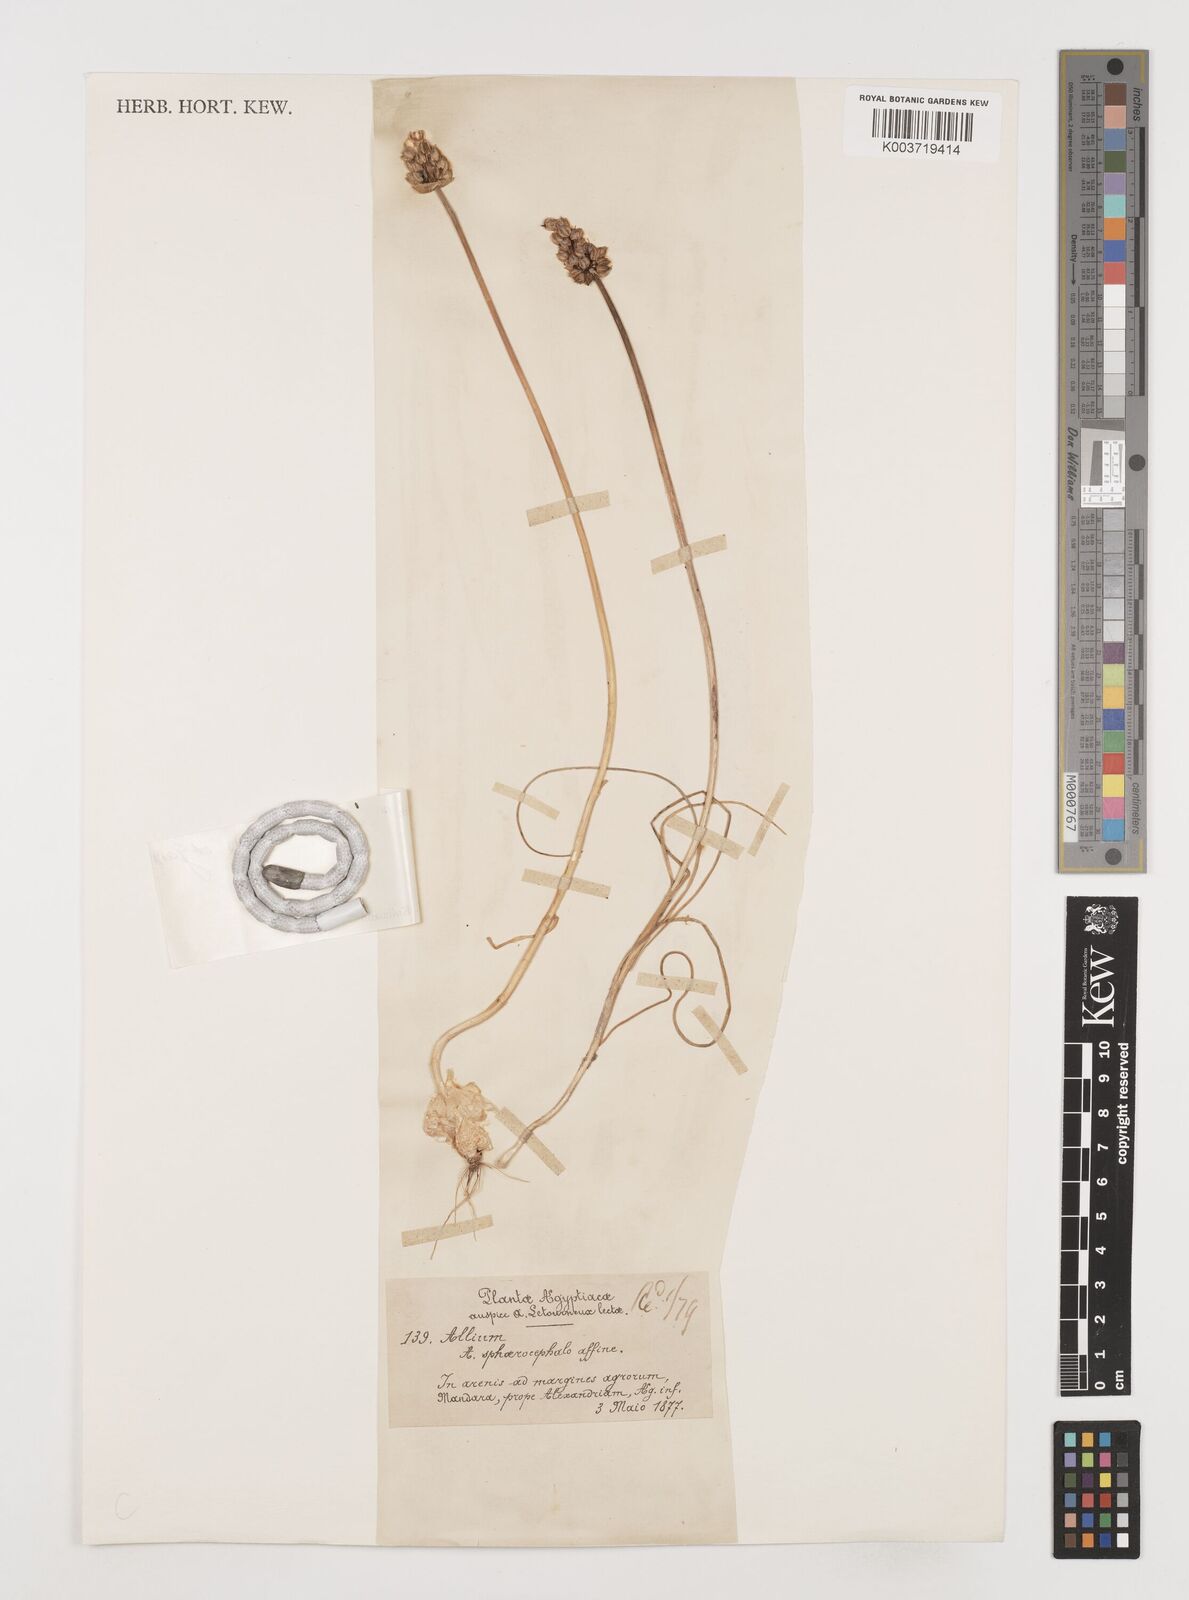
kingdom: Plantae
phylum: Tracheophyta
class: Liliopsida
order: Asparagales
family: Amaryllidaceae
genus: Allium
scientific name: Allium curtum
